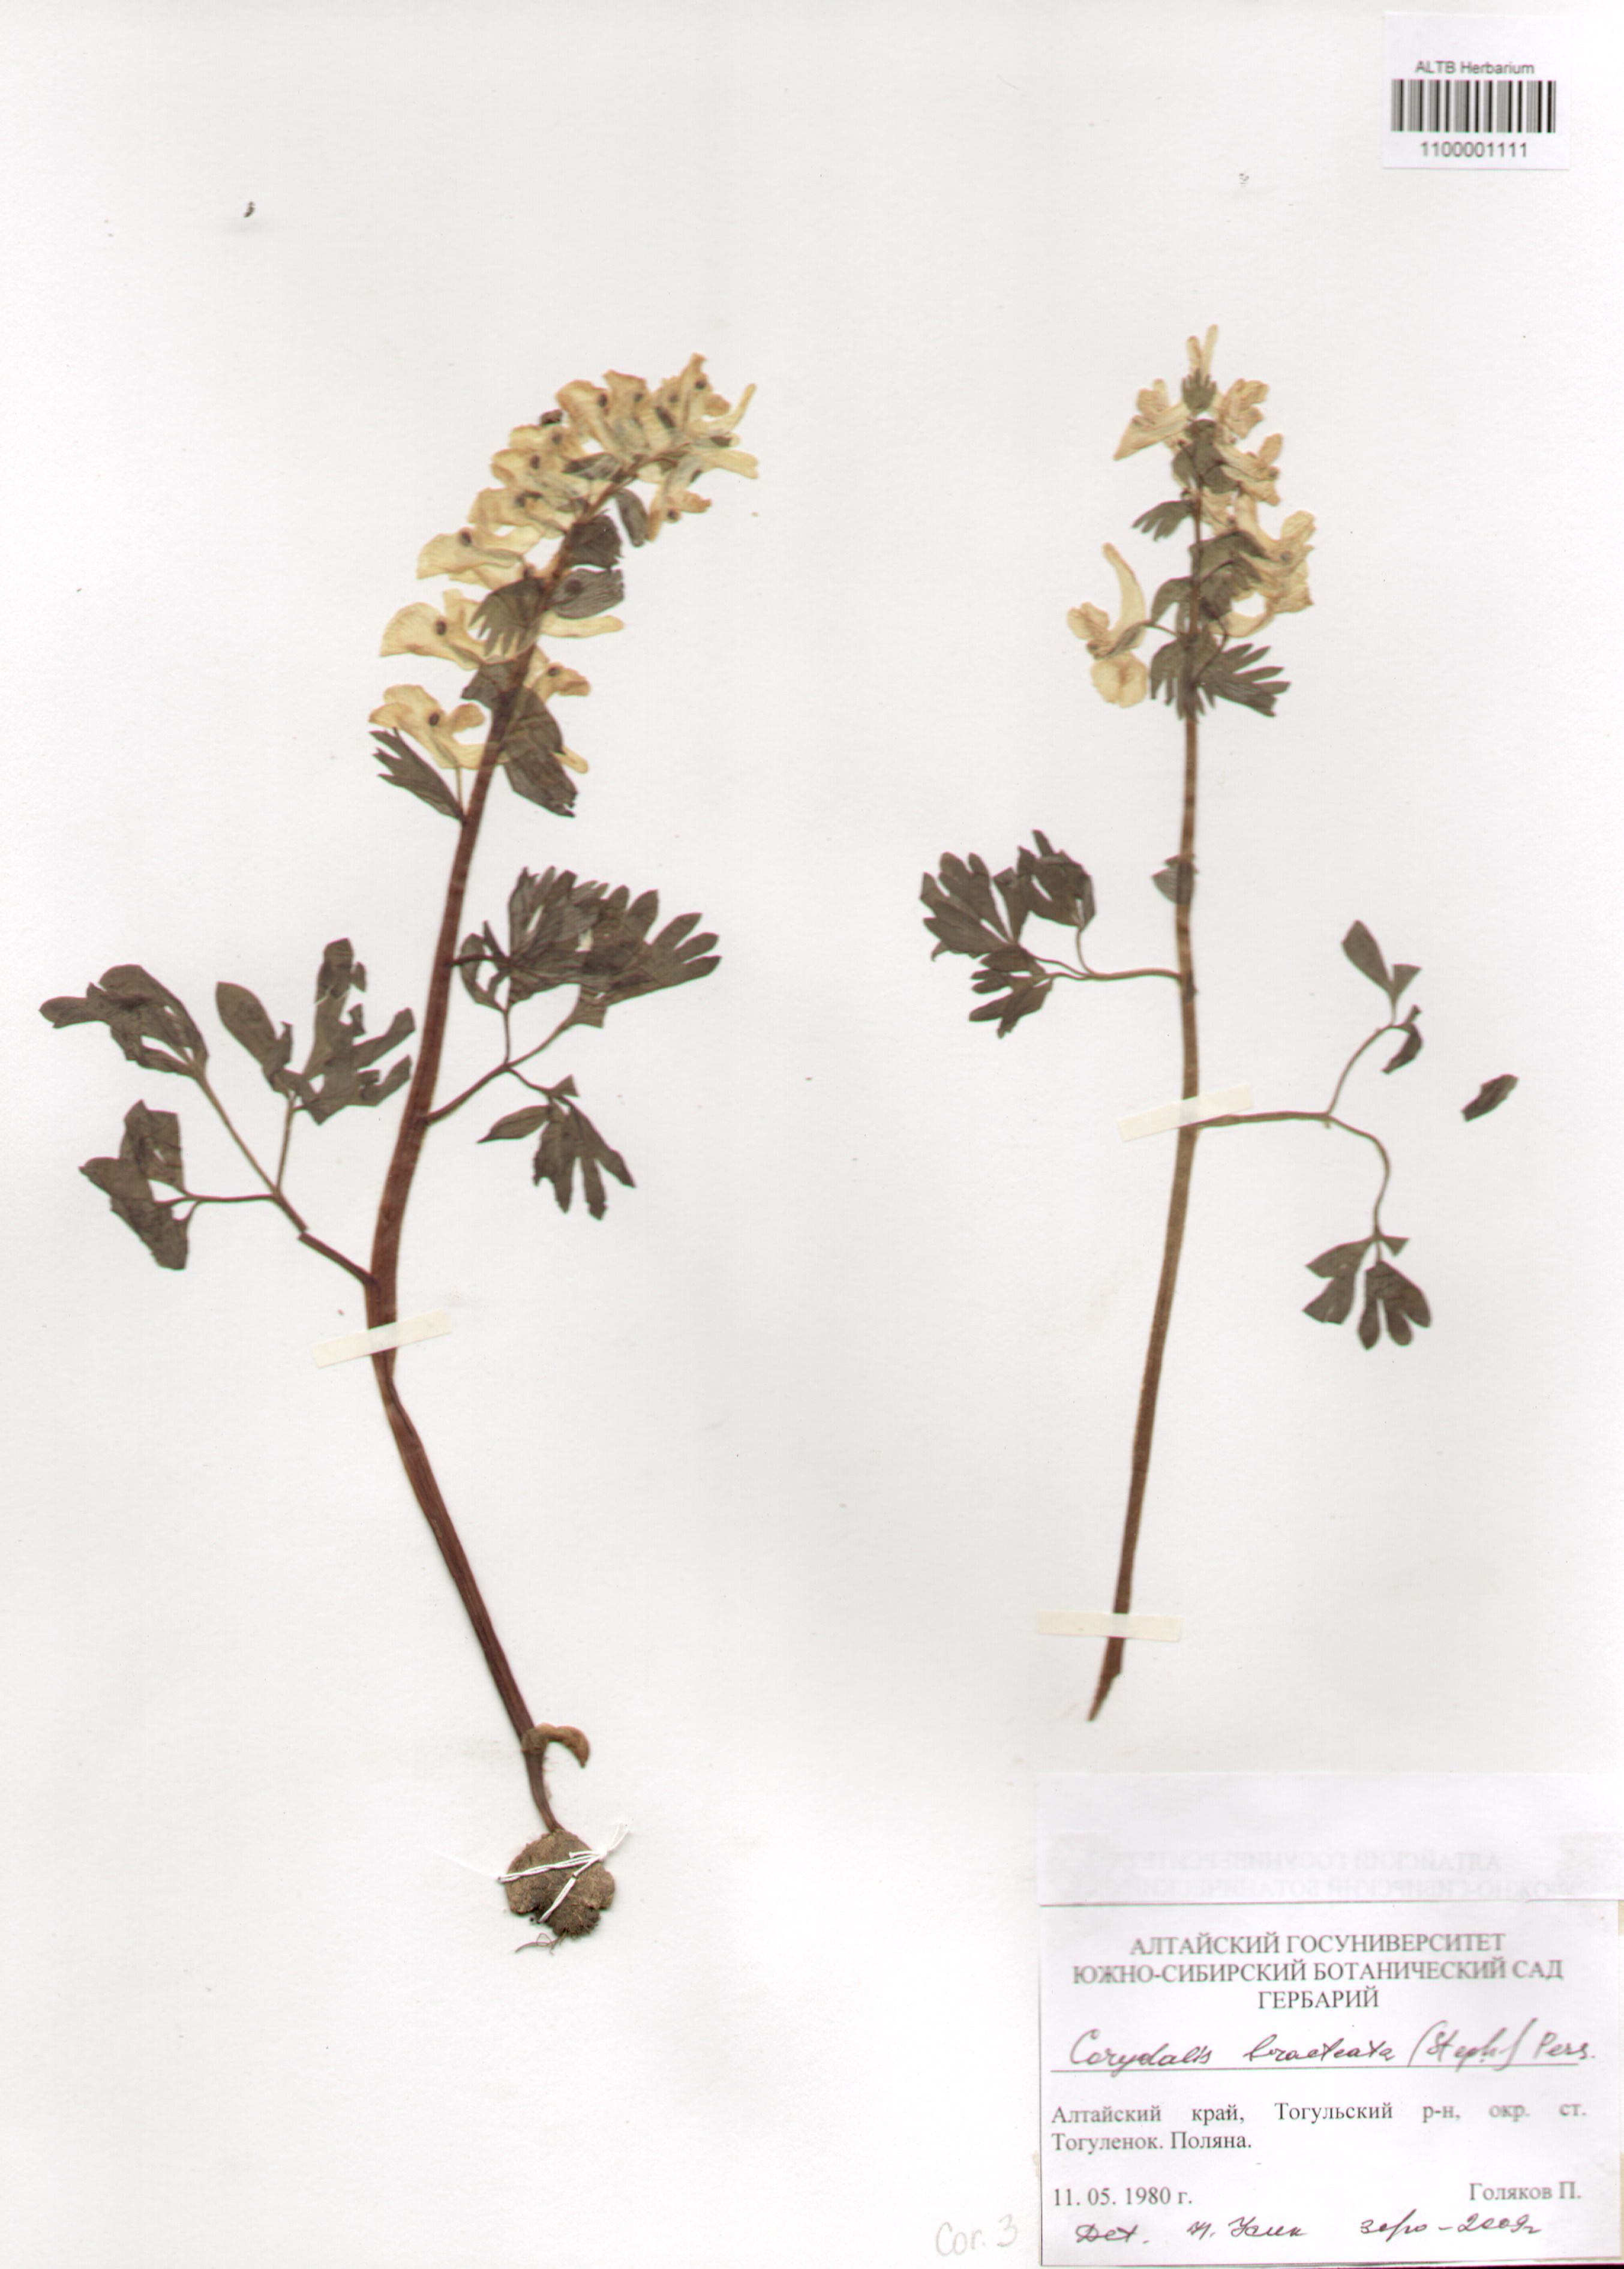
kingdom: Plantae
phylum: Tracheophyta
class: Magnoliopsida
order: Ranunculales
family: Papaveraceae
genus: Corydalis
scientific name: Corydalis bracteata
